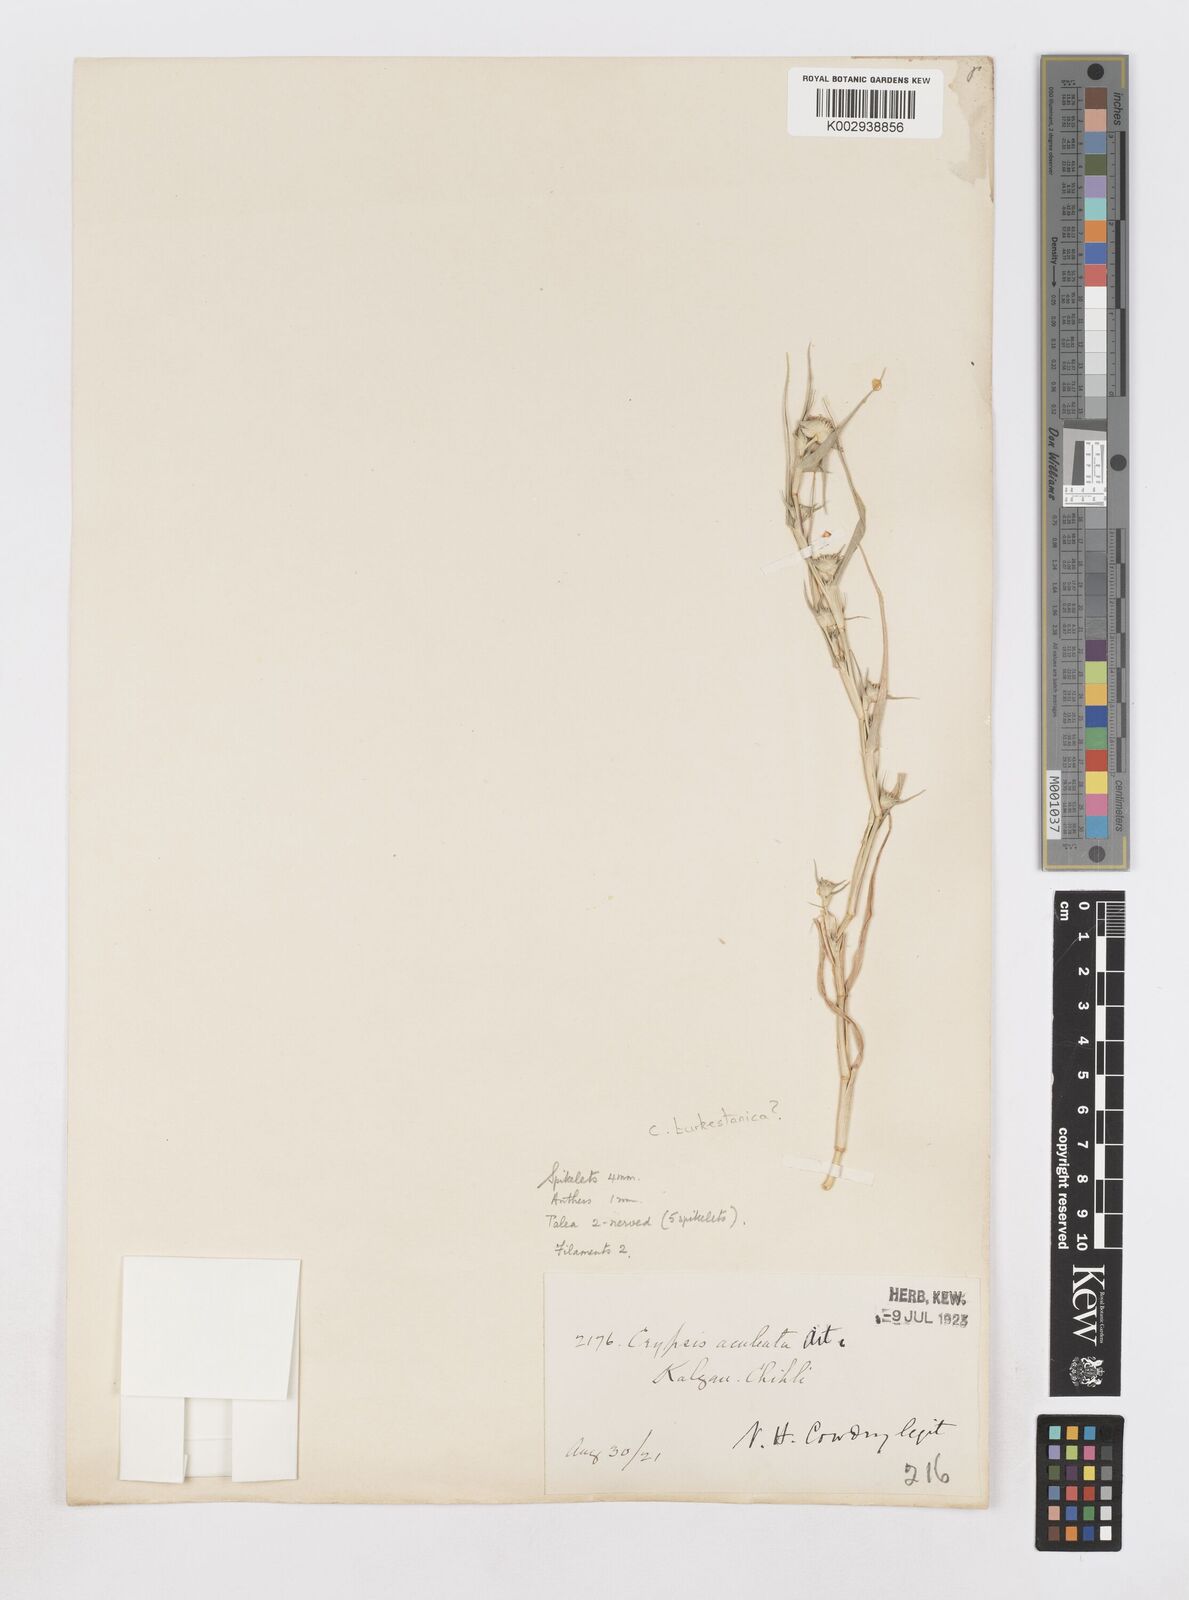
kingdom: Plantae
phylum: Tracheophyta
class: Liliopsida
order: Poales
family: Poaceae
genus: Sporobolus
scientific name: Sporobolus aculeatus
